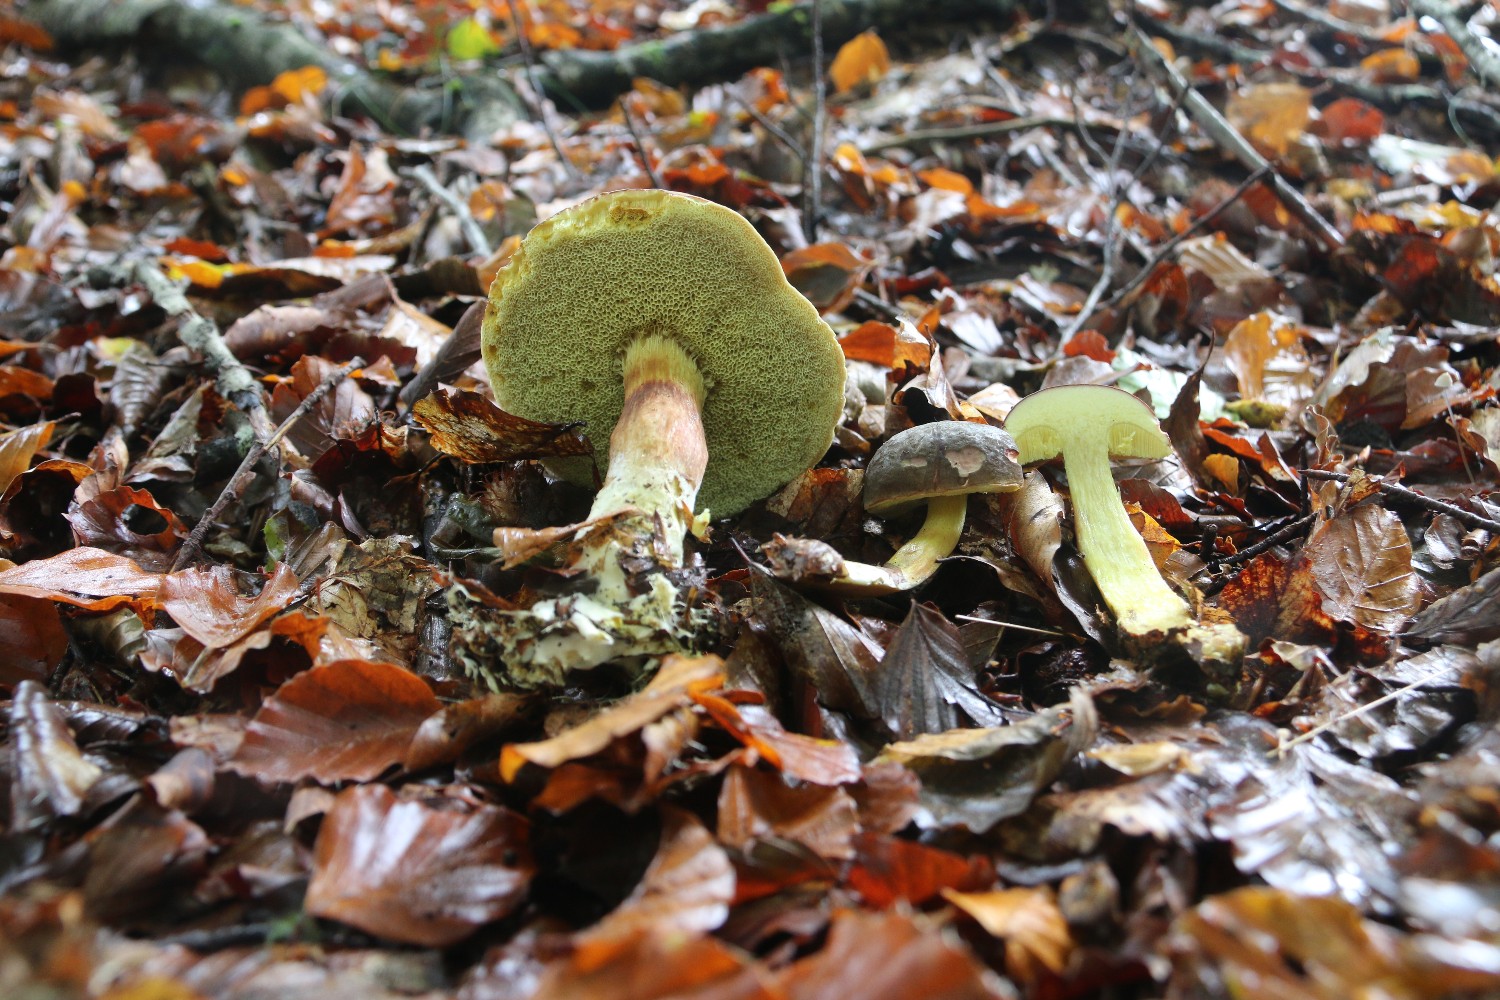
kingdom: Fungi
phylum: Basidiomycota
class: Agaricomycetes
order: Boletales
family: Boletaceae
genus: Xerocomellus
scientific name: Xerocomellus pruinatus
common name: dugget rørhat
